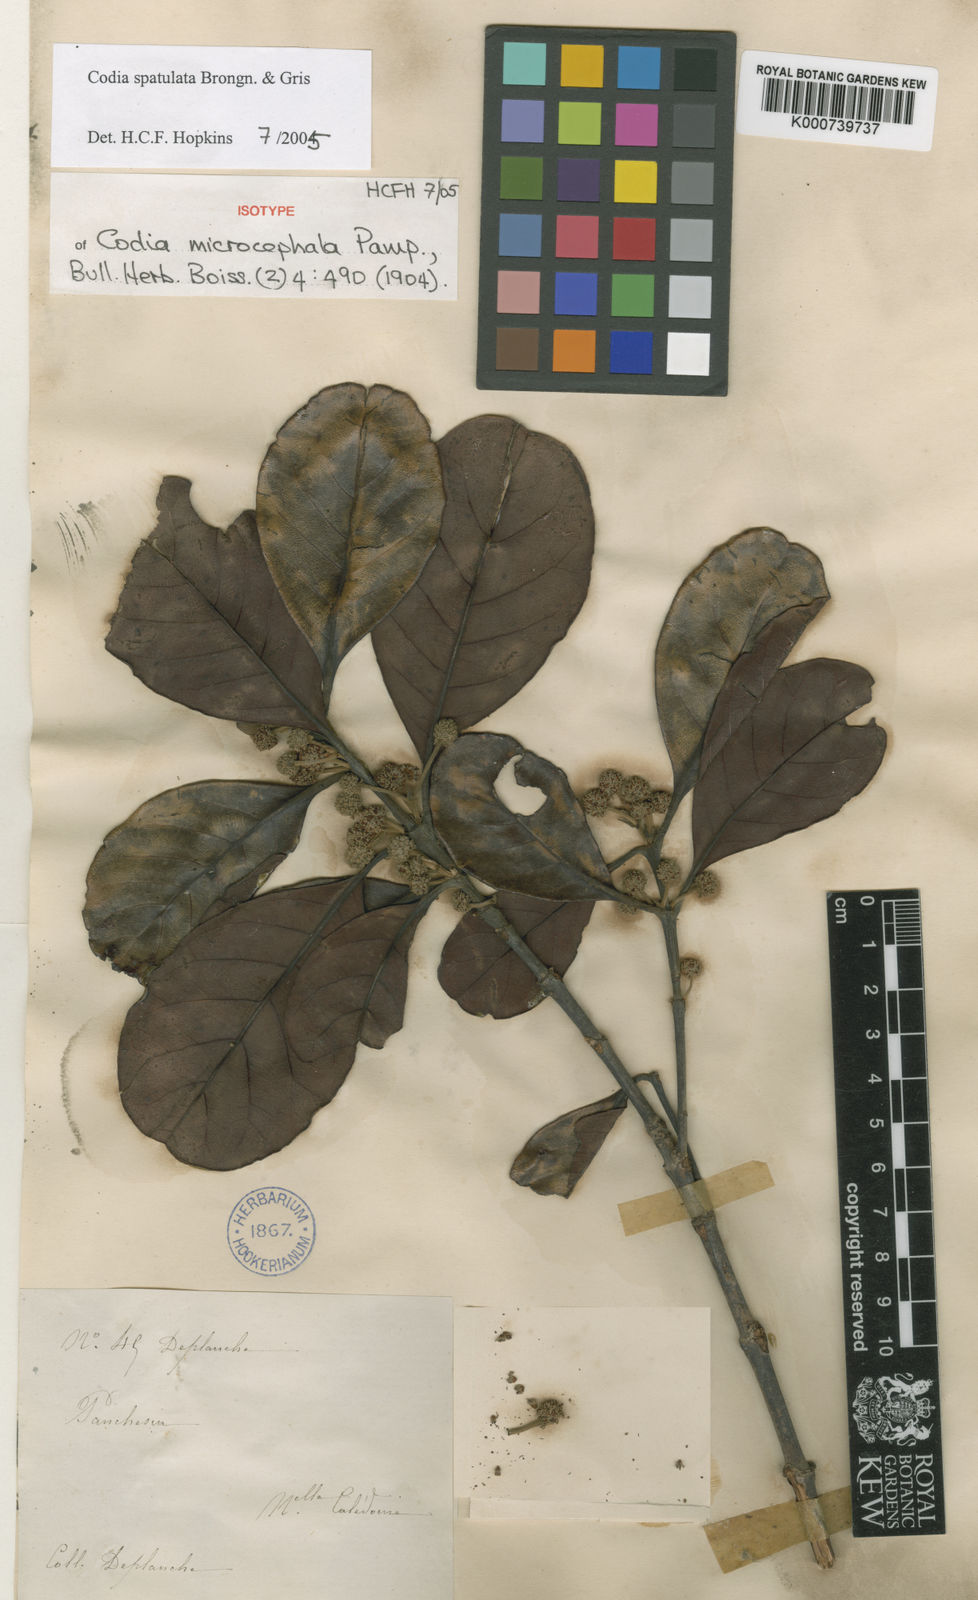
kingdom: Plantae
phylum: Tracheophyta
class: Magnoliopsida
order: Oxalidales
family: Cunoniaceae
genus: Codia
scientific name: Codia spathulata
